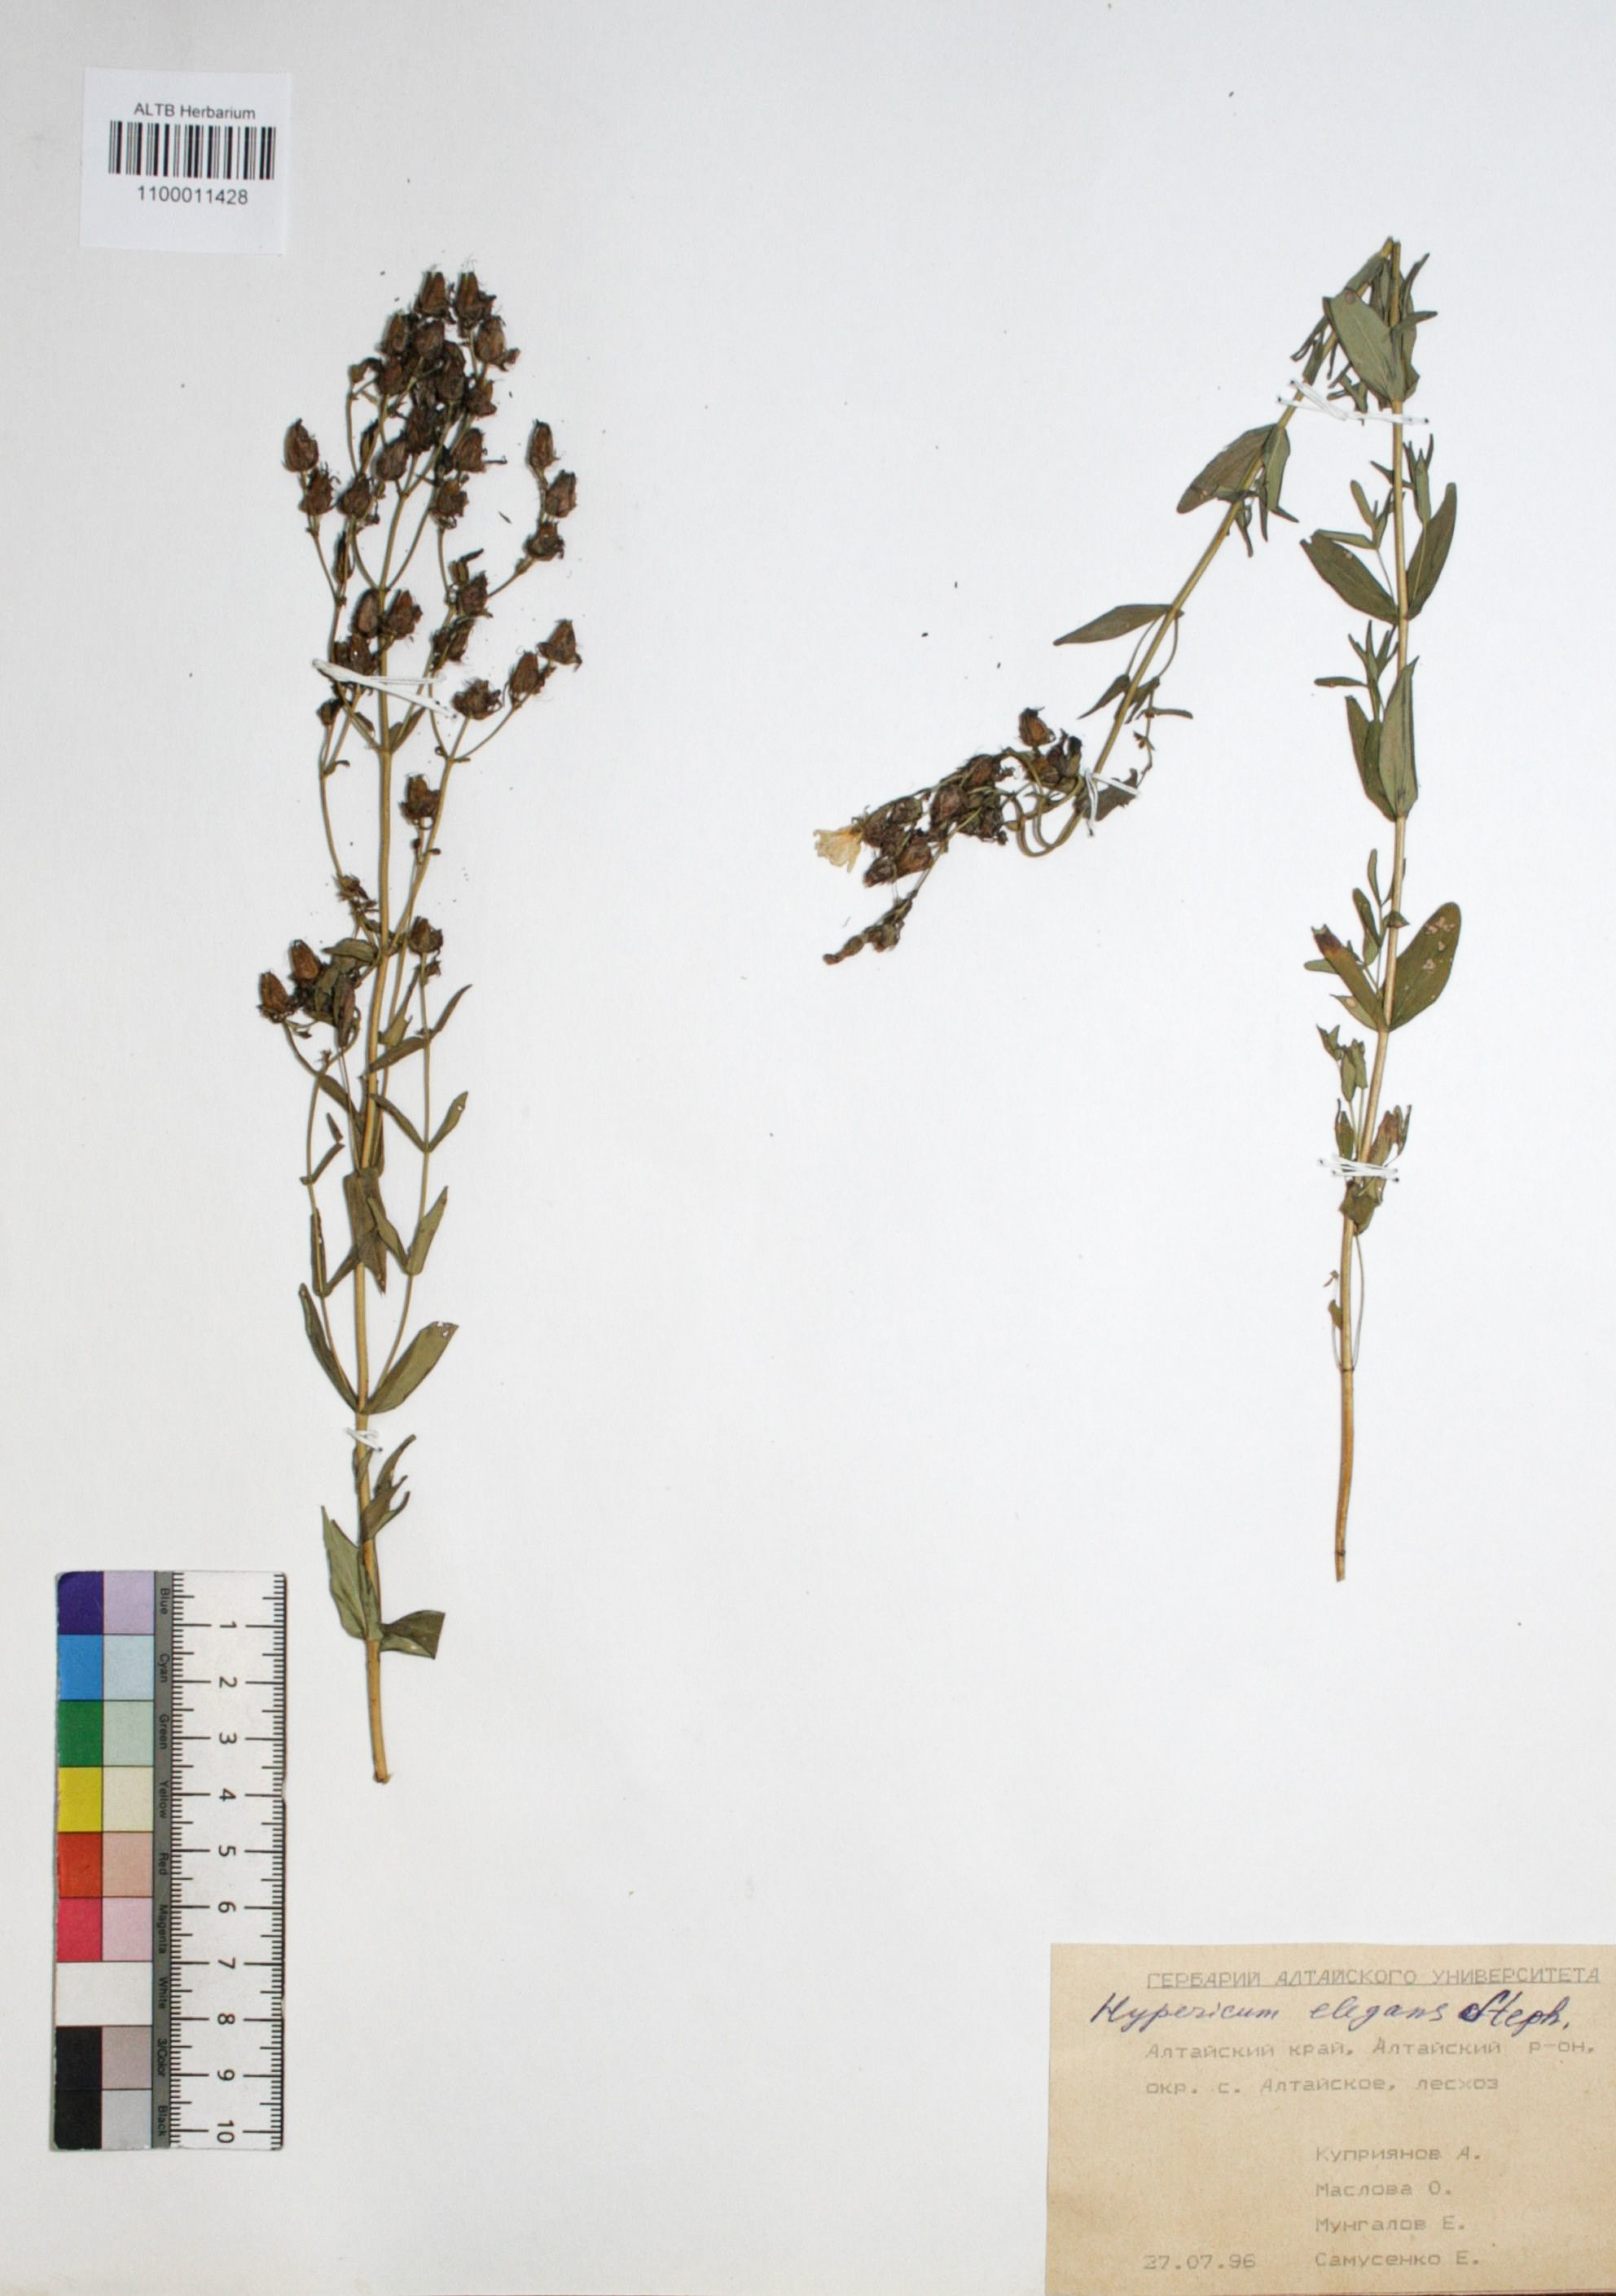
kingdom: Plantae
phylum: Tracheophyta
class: Magnoliopsida
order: Malpighiales
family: Hypericaceae
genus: Hypericum
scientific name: Hypericum elegans
